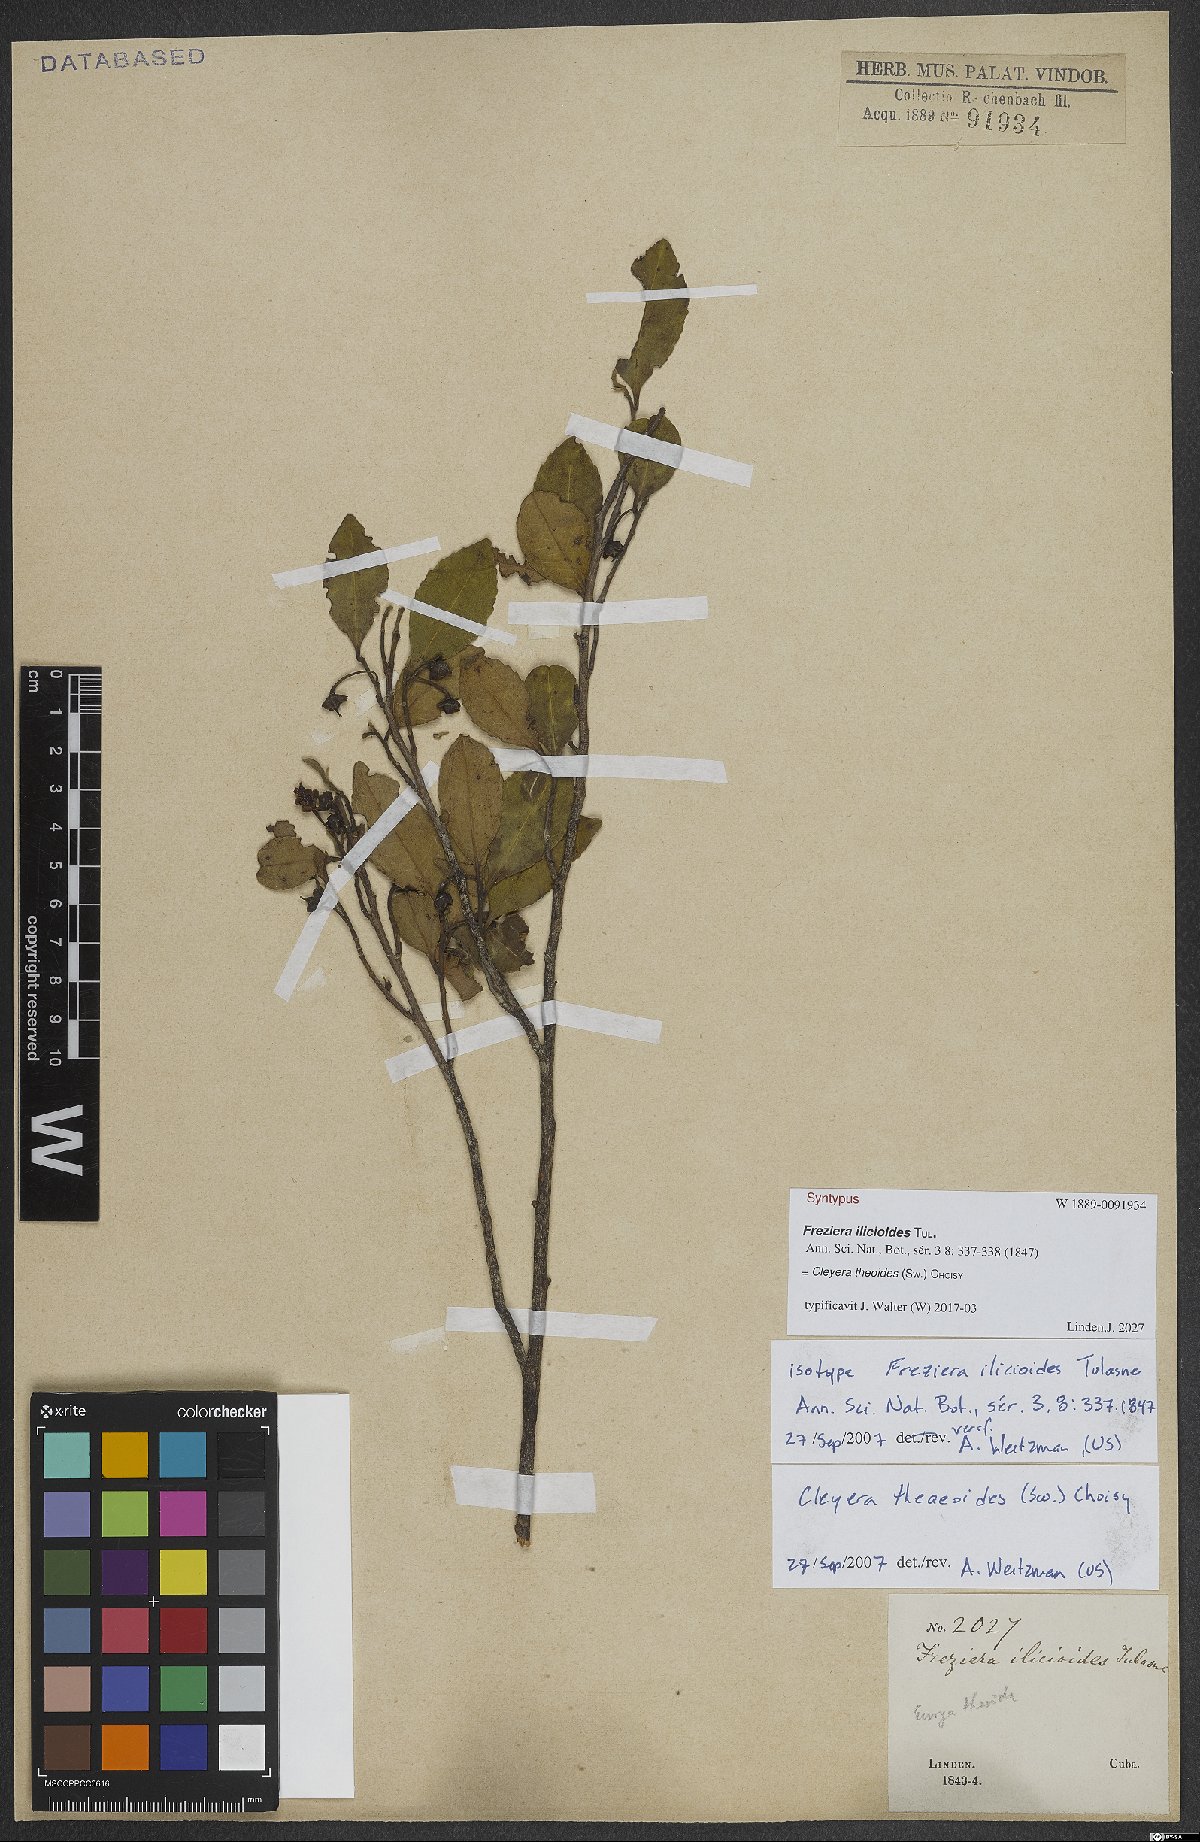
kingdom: Plantae
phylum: Tracheophyta
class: Magnoliopsida
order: Ericales
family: Pentaphylacaceae
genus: Cleyera
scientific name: Cleyera theaeoides
